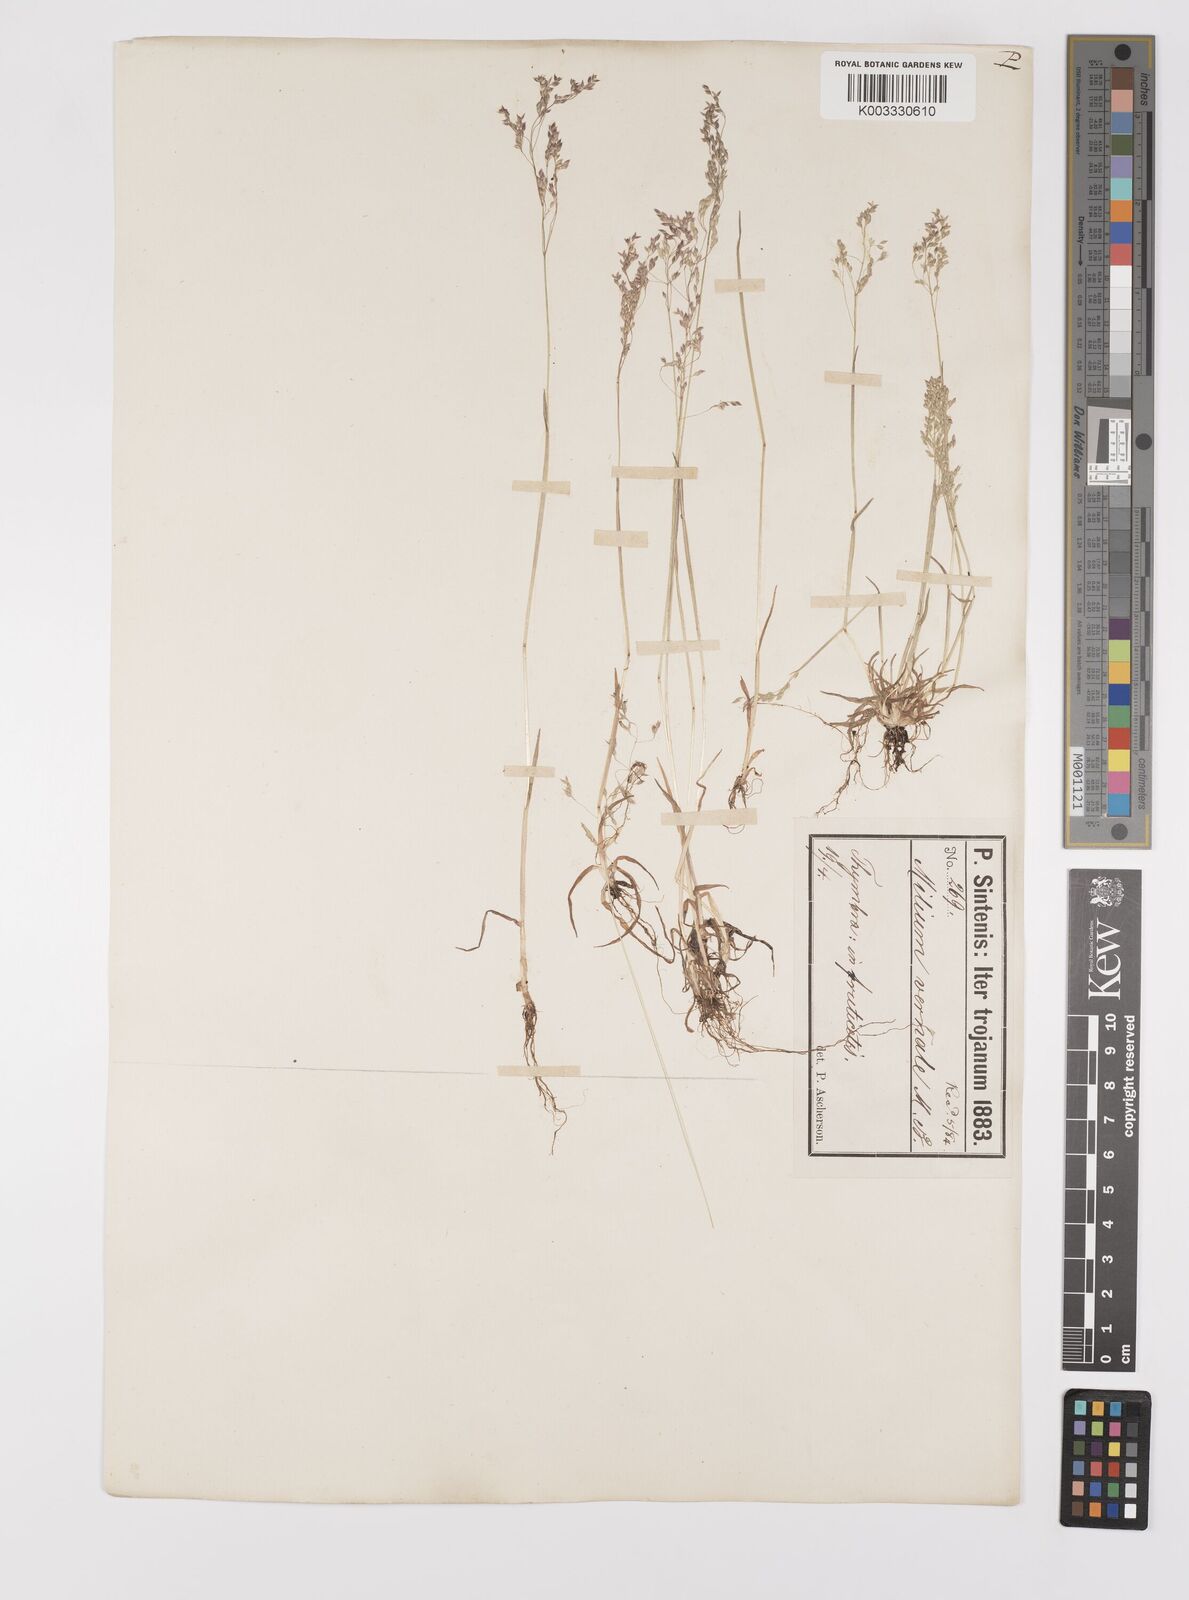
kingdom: Plantae
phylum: Tracheophyta
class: Liliopsida
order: Poales
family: Poaceae
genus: Milium
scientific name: Milium vernale
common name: Early millet
